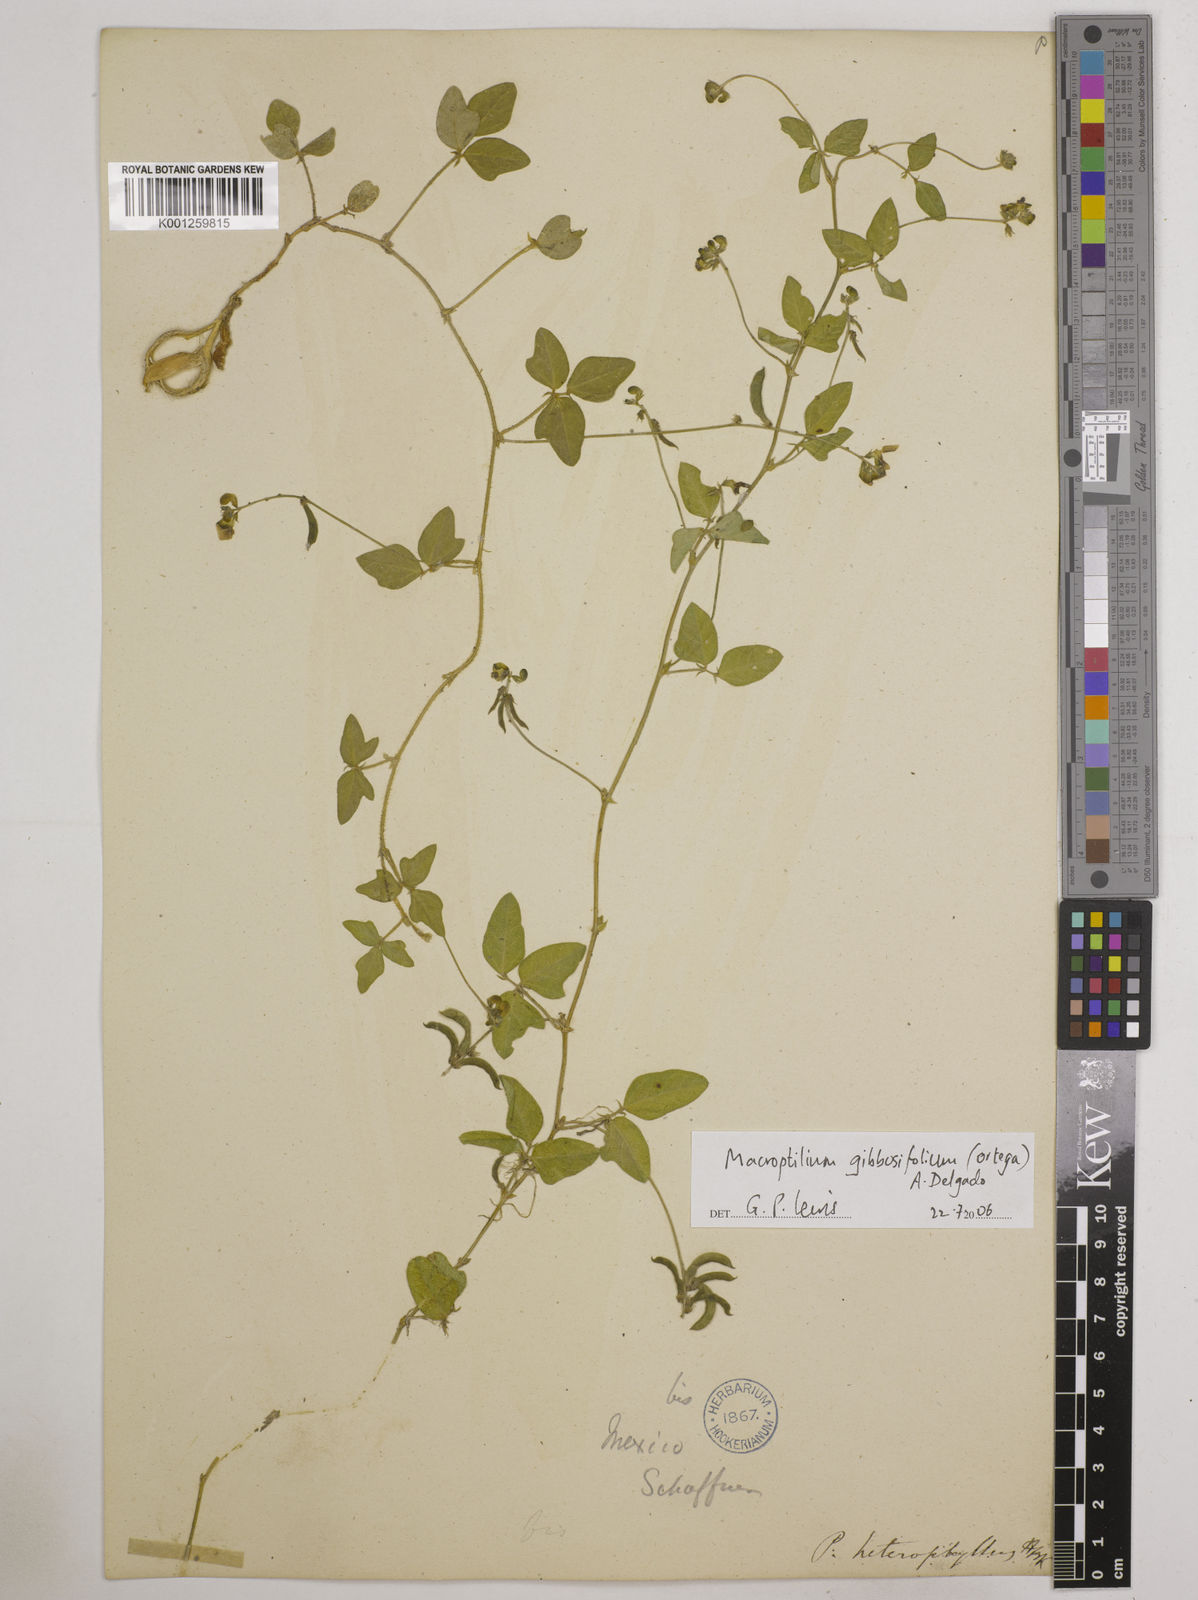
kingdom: Plantae
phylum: Tracheophyta
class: Magnoliopsida
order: Fabales
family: Fabaceae
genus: Macroptilium
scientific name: Macroptilium gibbosifolium
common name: Variableleaf bushbean
